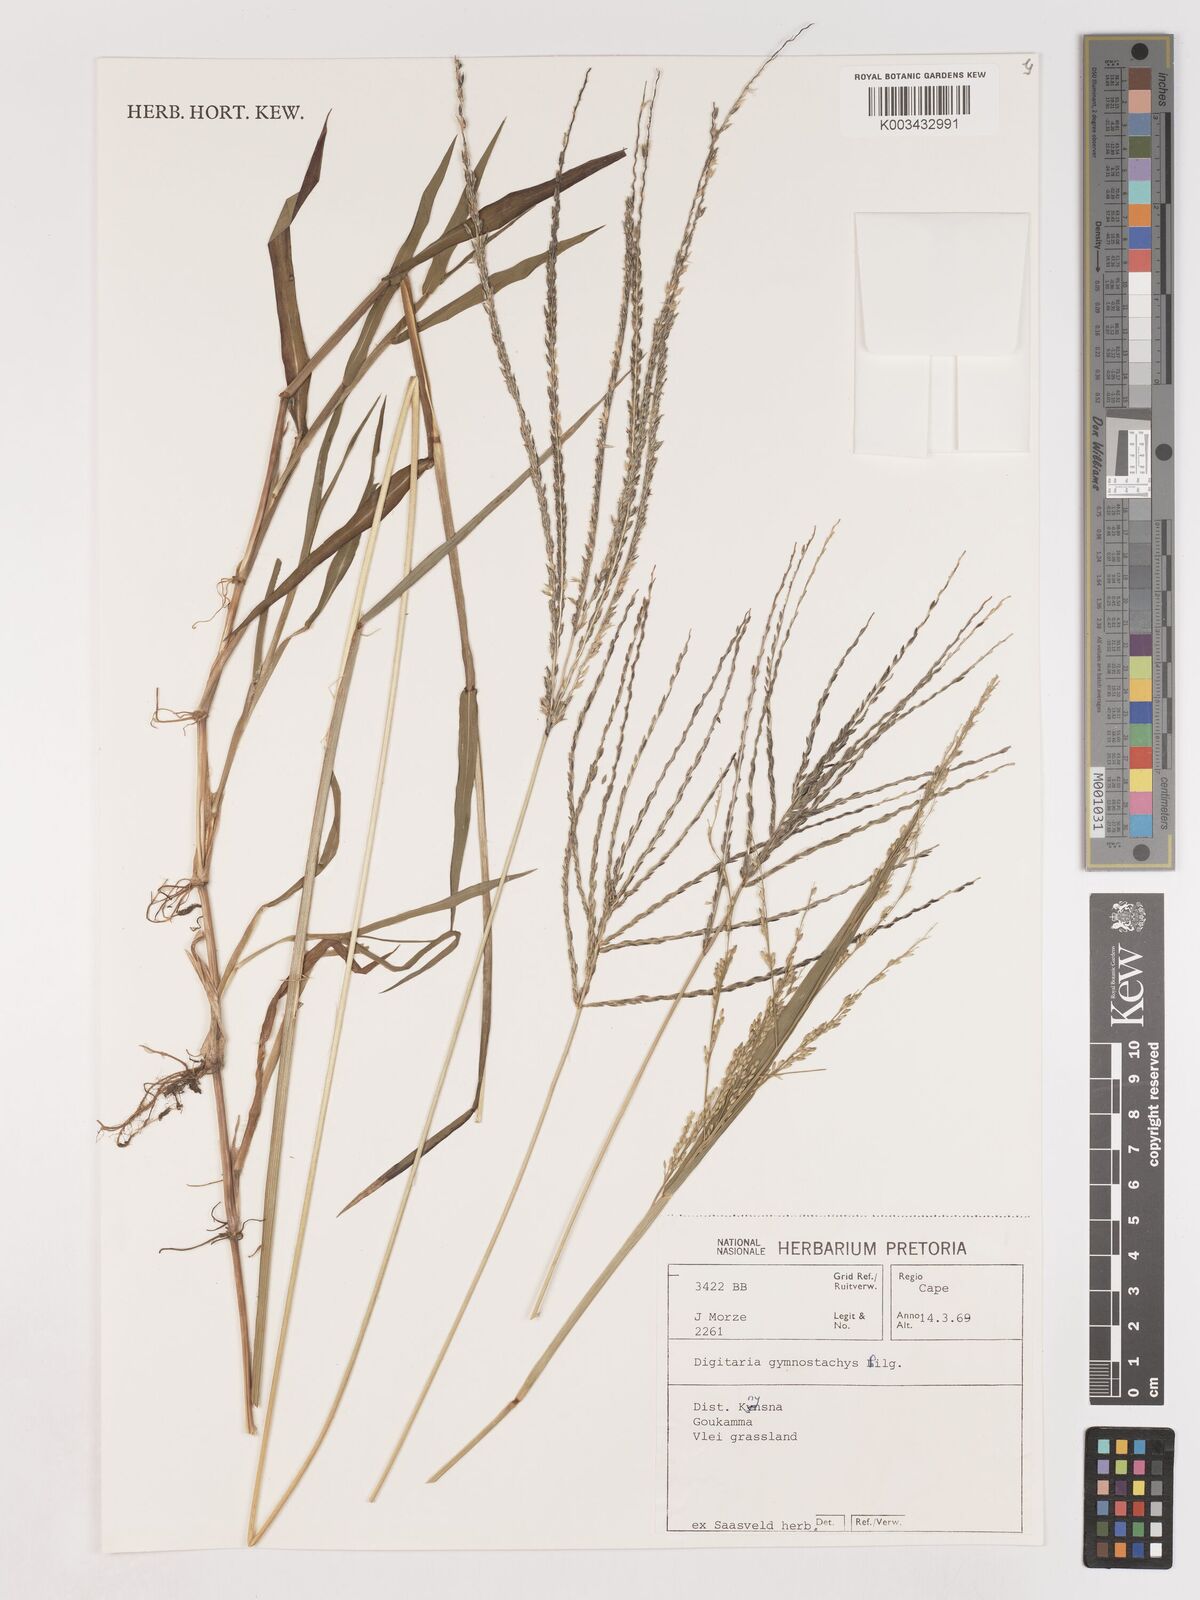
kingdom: Plantae
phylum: Tracheophyta
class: Liliopsida
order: Poales
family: Poaceae
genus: Digitaria
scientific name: Digitaria gymnostachys
